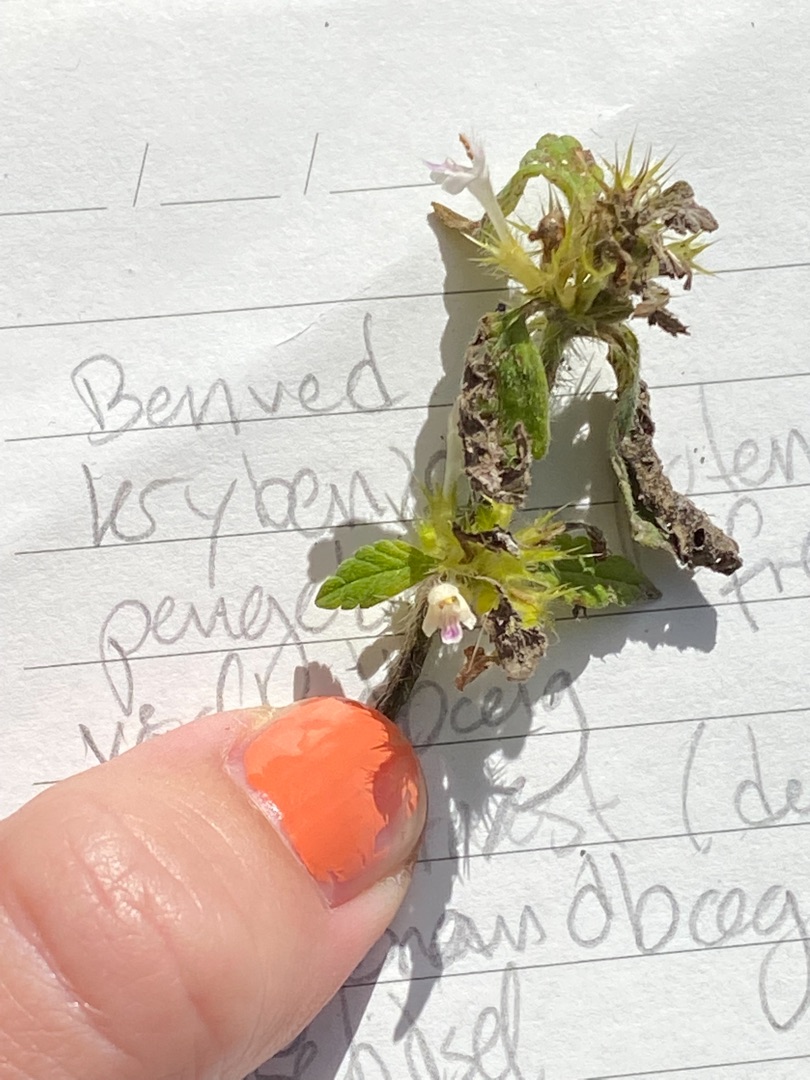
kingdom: Plantae
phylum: Tracheophyta
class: Magnoliopsida
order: Lamiales
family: Lamiaceae
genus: Galeopsis
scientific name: Galeopsis bifida
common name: Skov-hanekro
